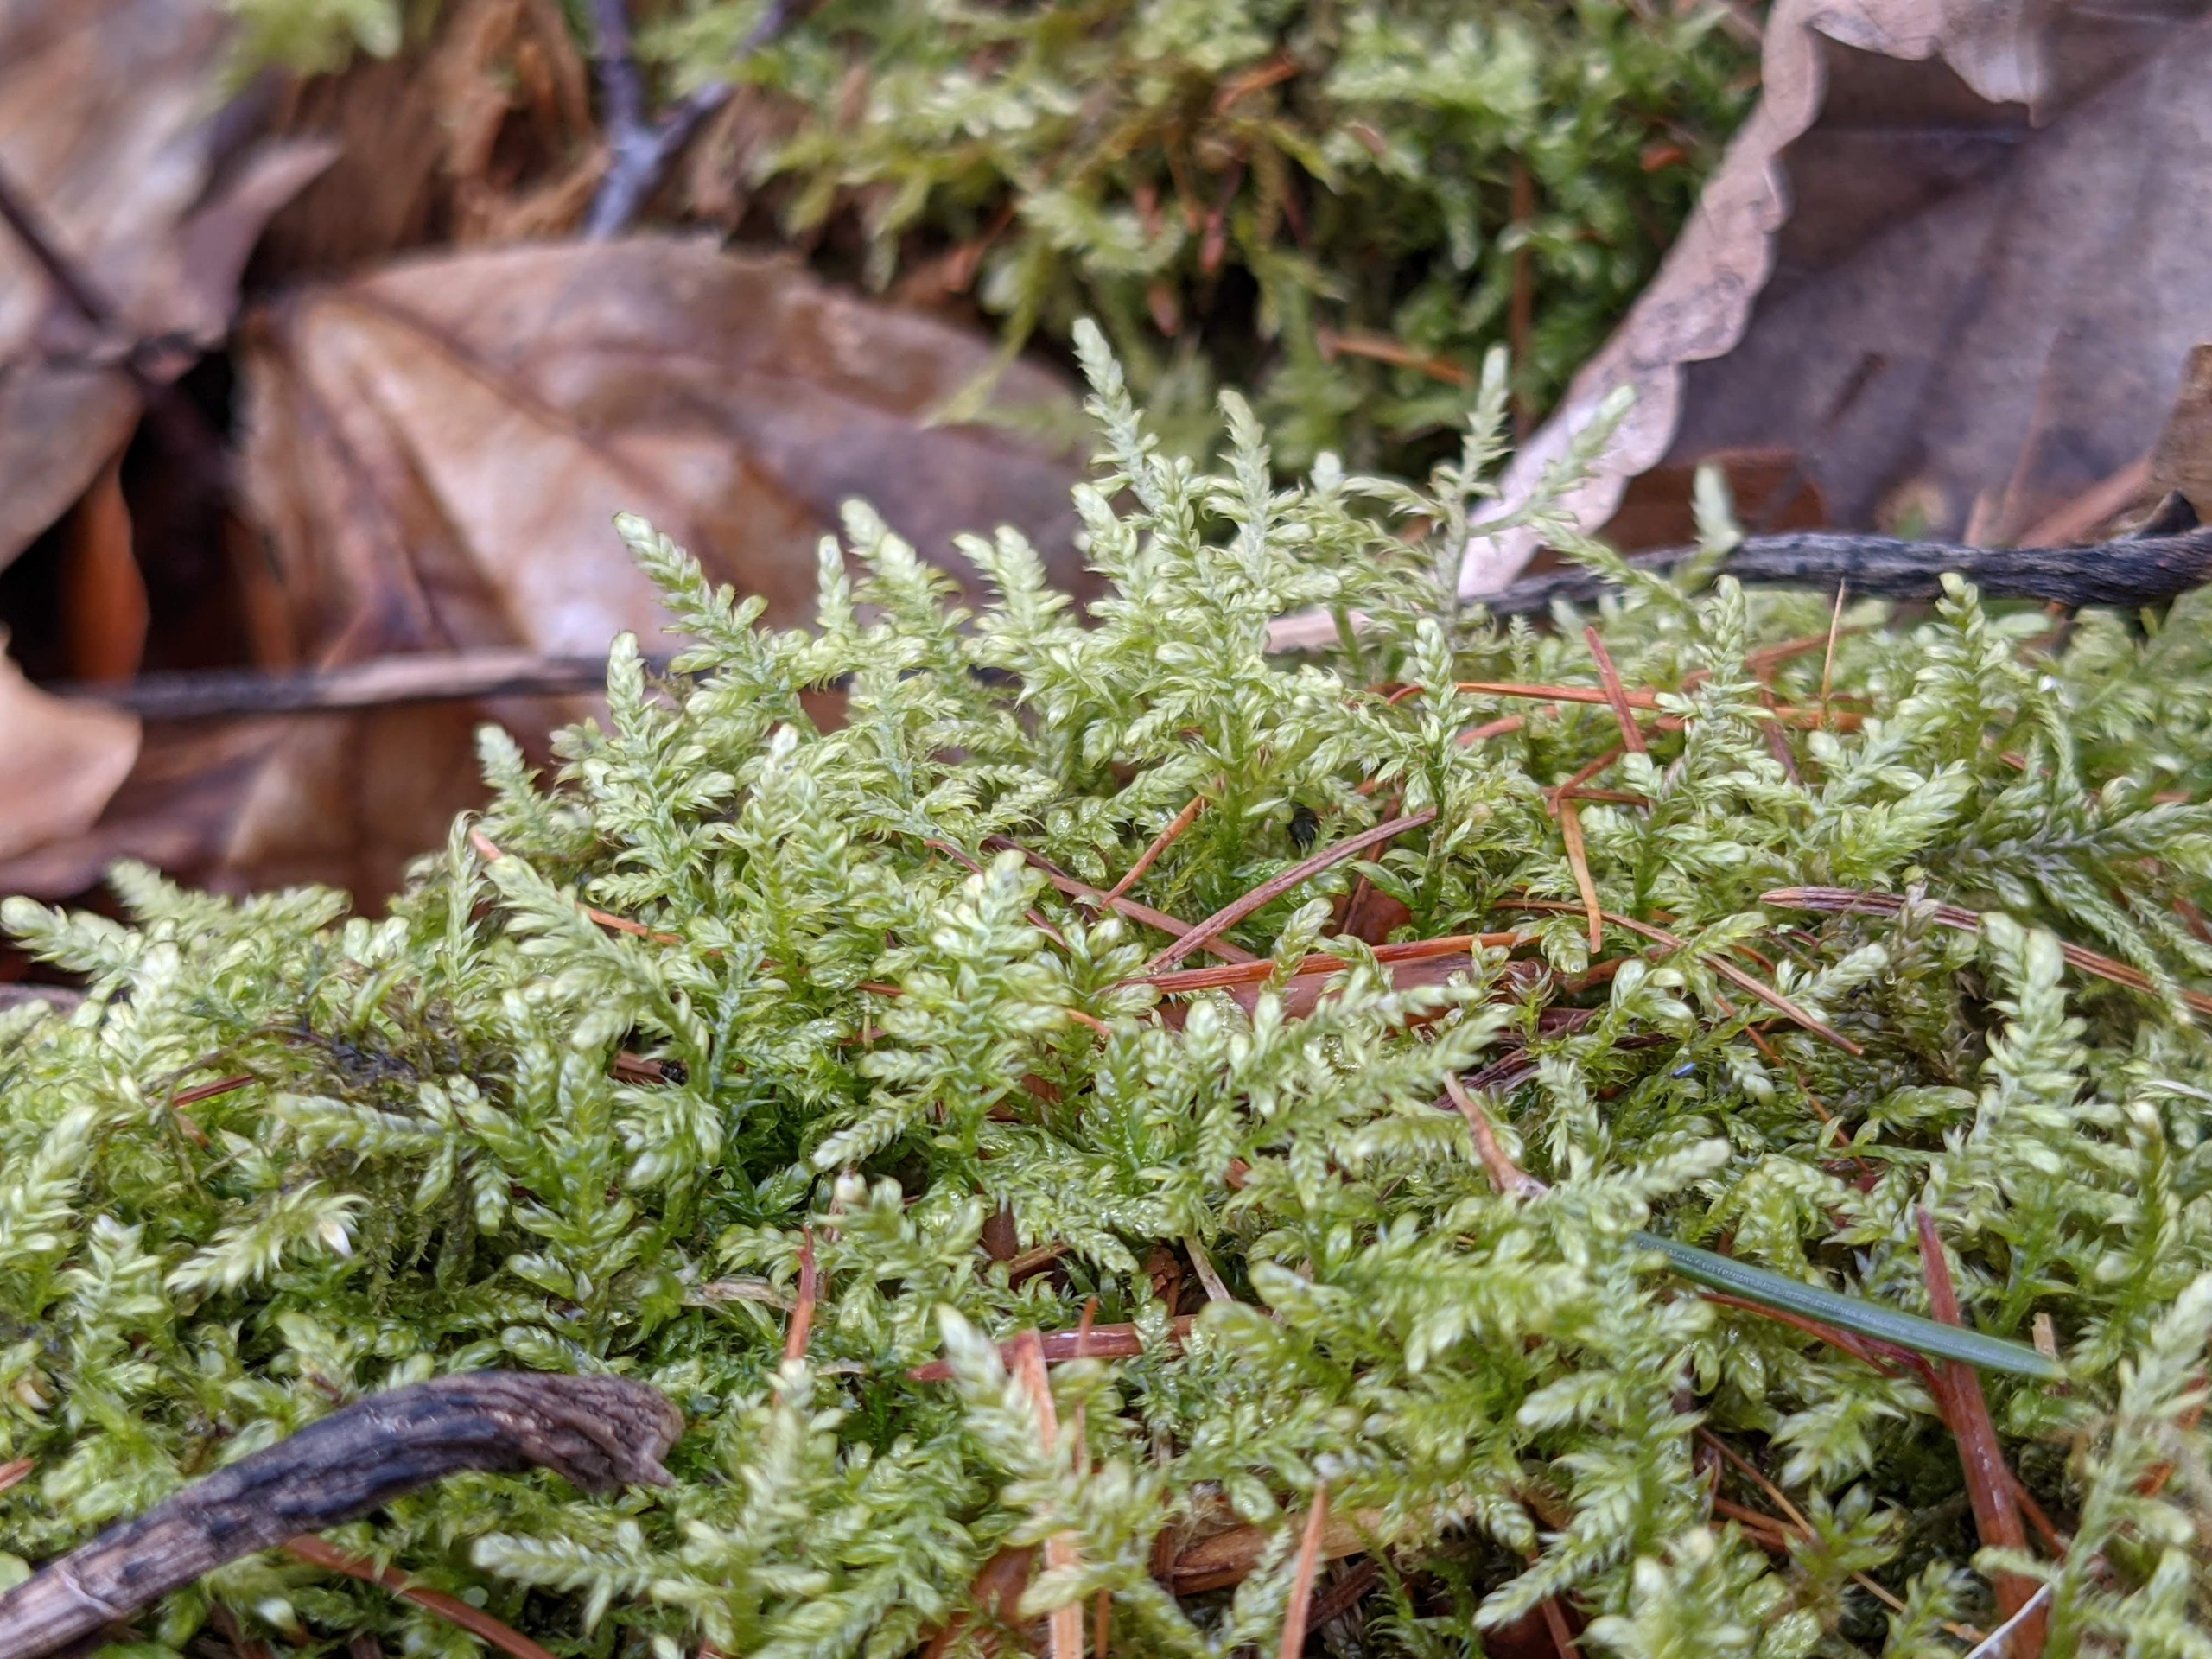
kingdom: Plantae
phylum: Bryophyta
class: Bryopsida
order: Hypnales
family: Hypnaceae
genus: Hypnum
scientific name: Hypnum jutlandicum
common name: Hede-cypresmos
